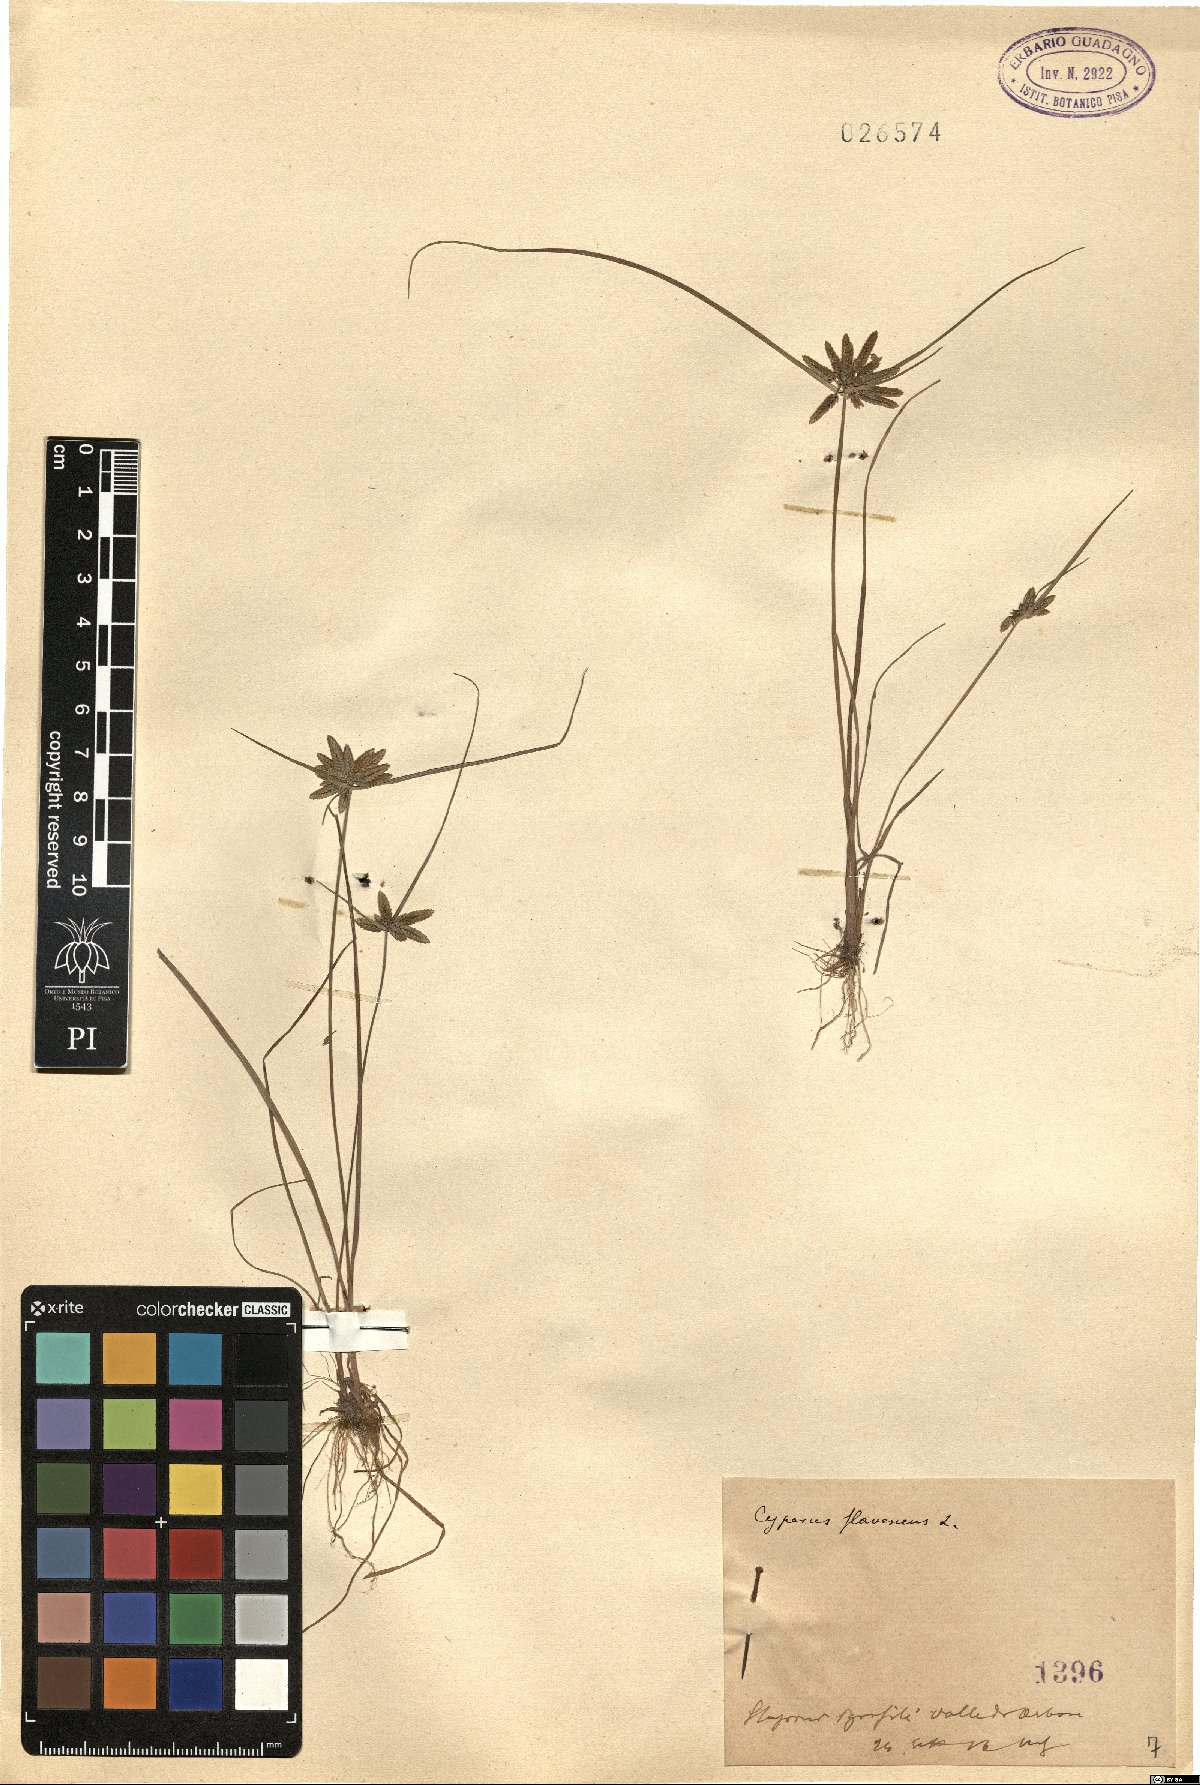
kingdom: Plantae
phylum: Tracheophyta
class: Liliopsida
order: Poales
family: Cyperaceae
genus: Cyperus
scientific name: Cyperus flavescens
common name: Yellow galingale
